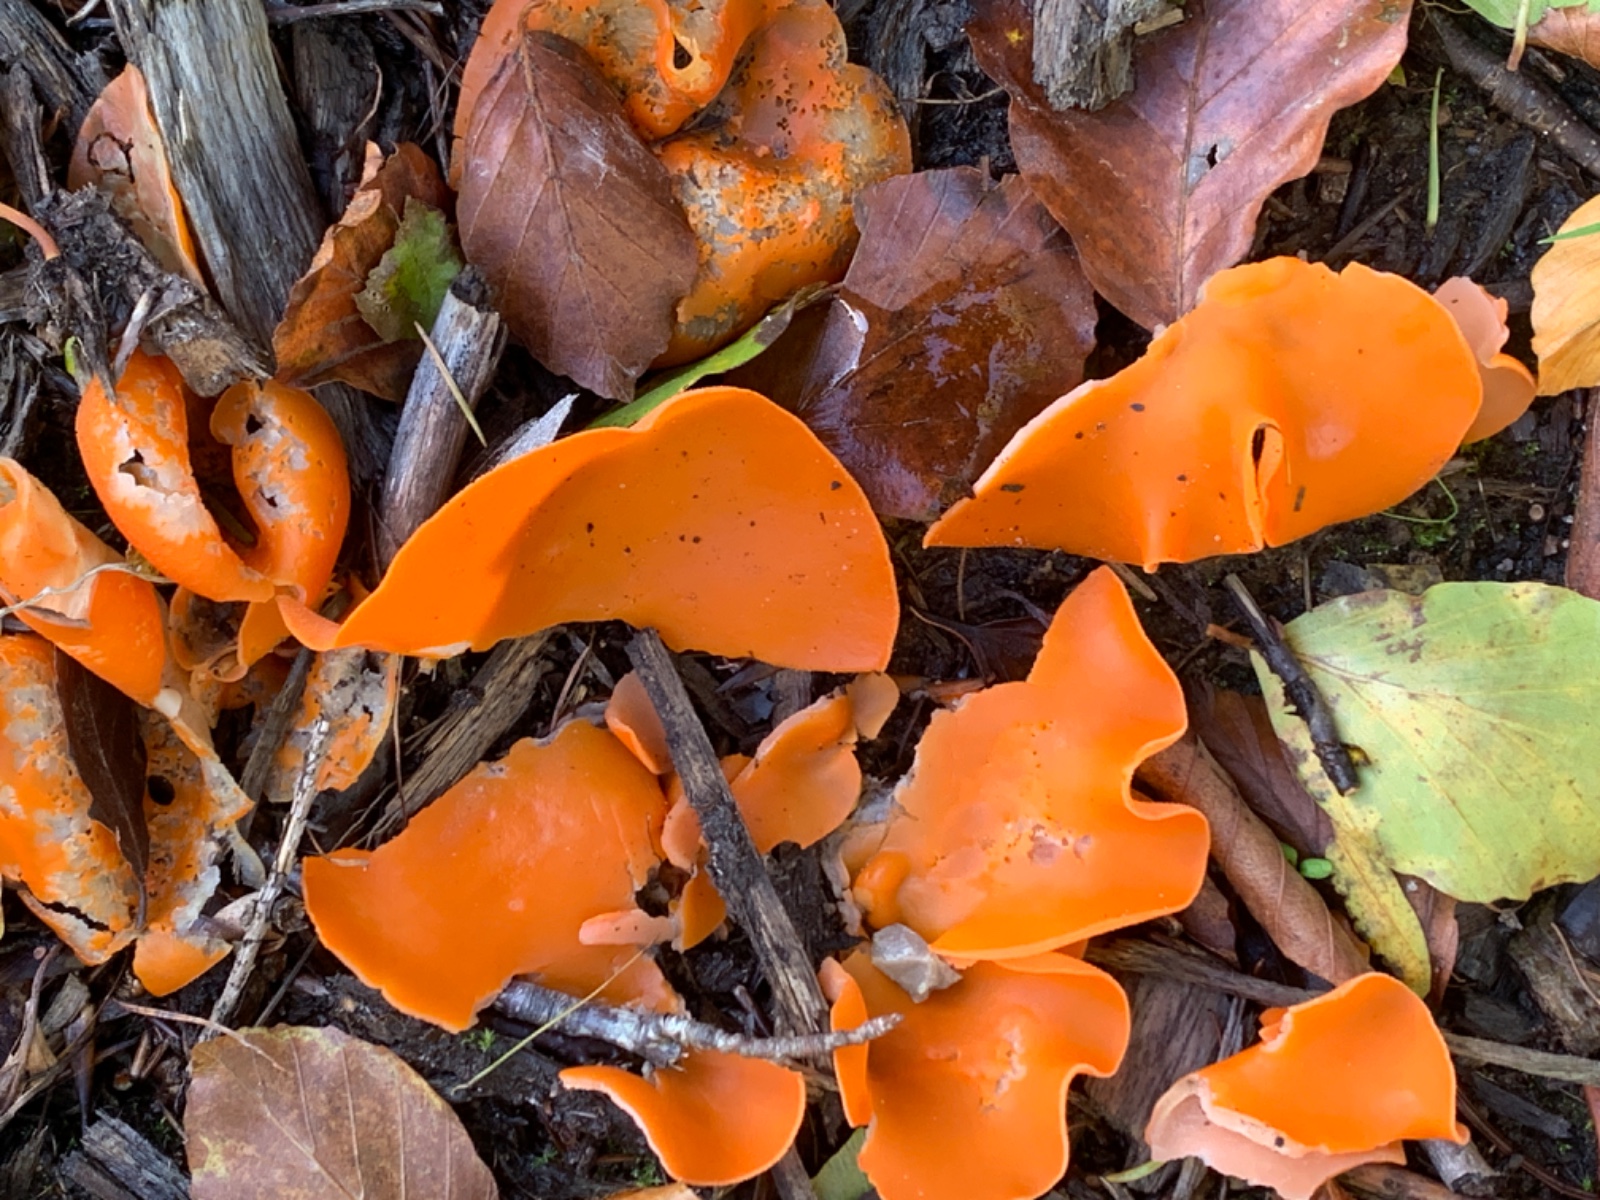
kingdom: Fungi
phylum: Ascomycota
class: Pezizomycetes
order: Pezizales
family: Pyronemataceae
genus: Aleuria
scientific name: Aleuria aurantia
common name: almindelig orangebæger
